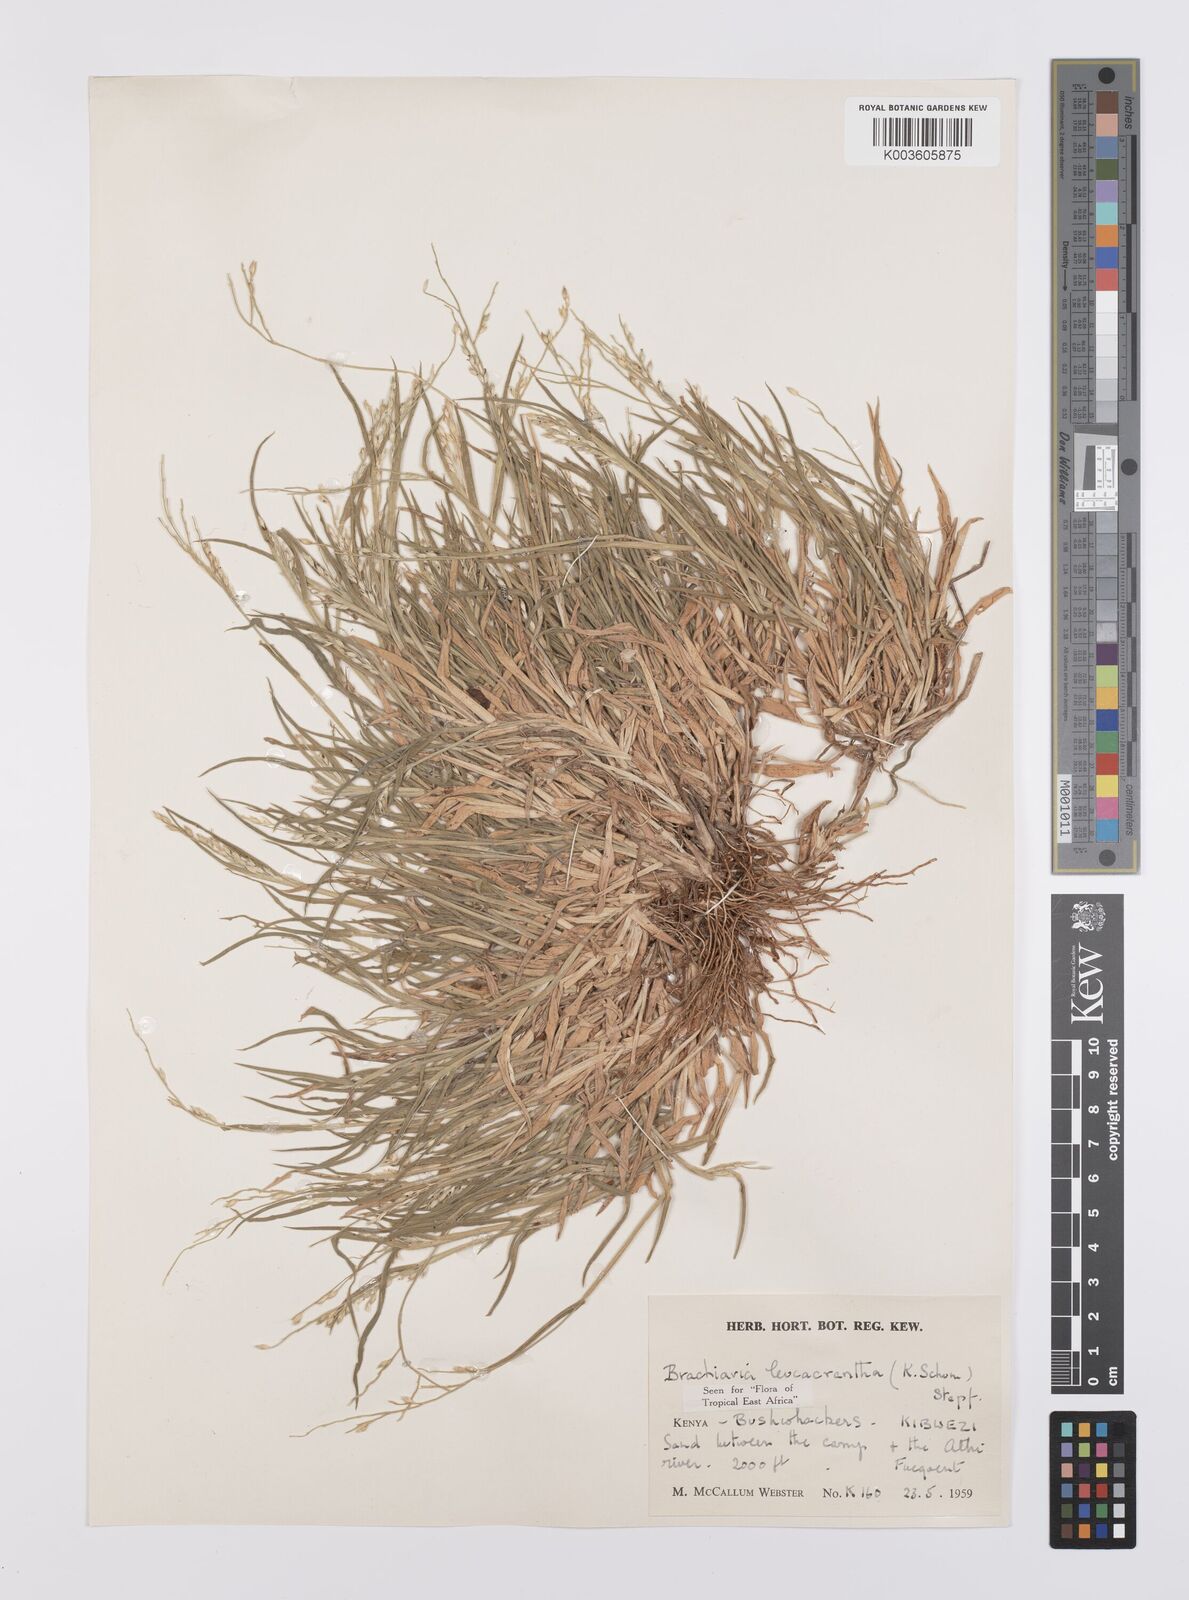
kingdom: Plantae
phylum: Tracheophyta
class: Liliopsida
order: Poales
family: Poaceae
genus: Urochloa
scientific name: Urochloa xantholeuca
